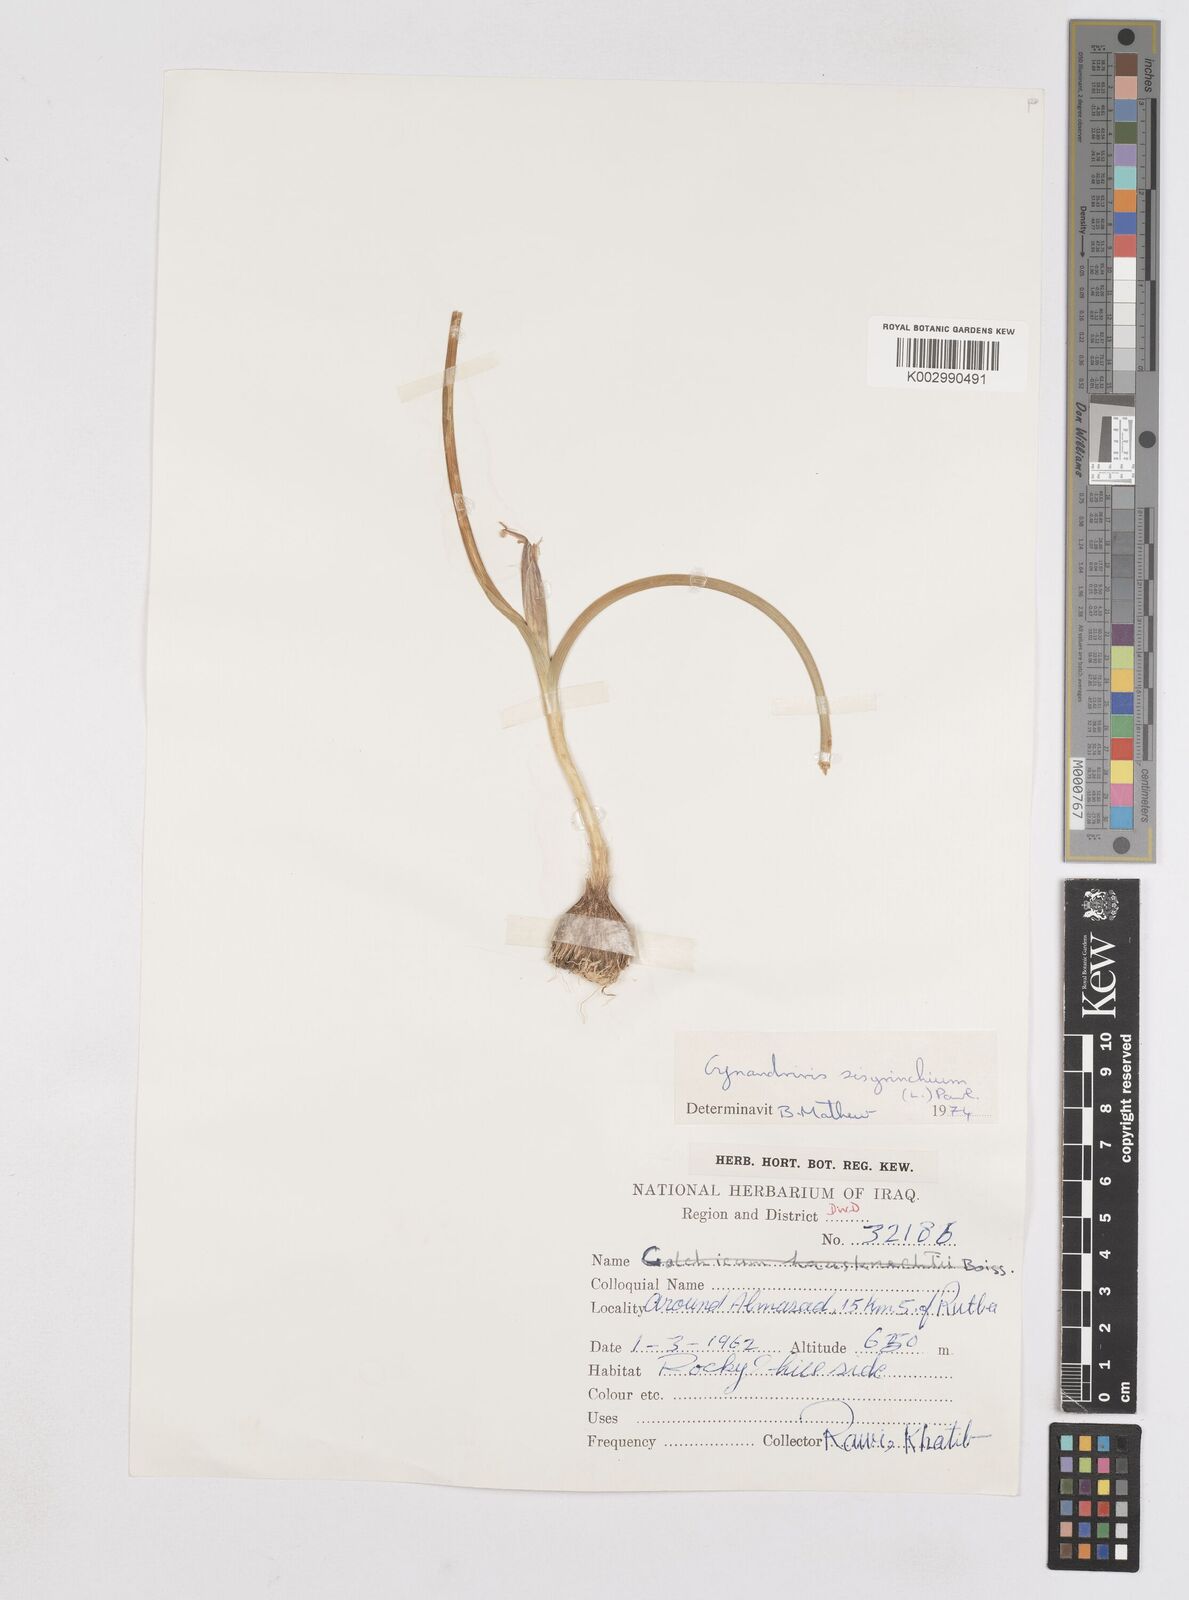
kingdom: Plantae
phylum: Tracheophyta
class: Liliopsida
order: Asparagales
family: Iridaceae
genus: Moraea
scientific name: Moraea sisyrinchium
